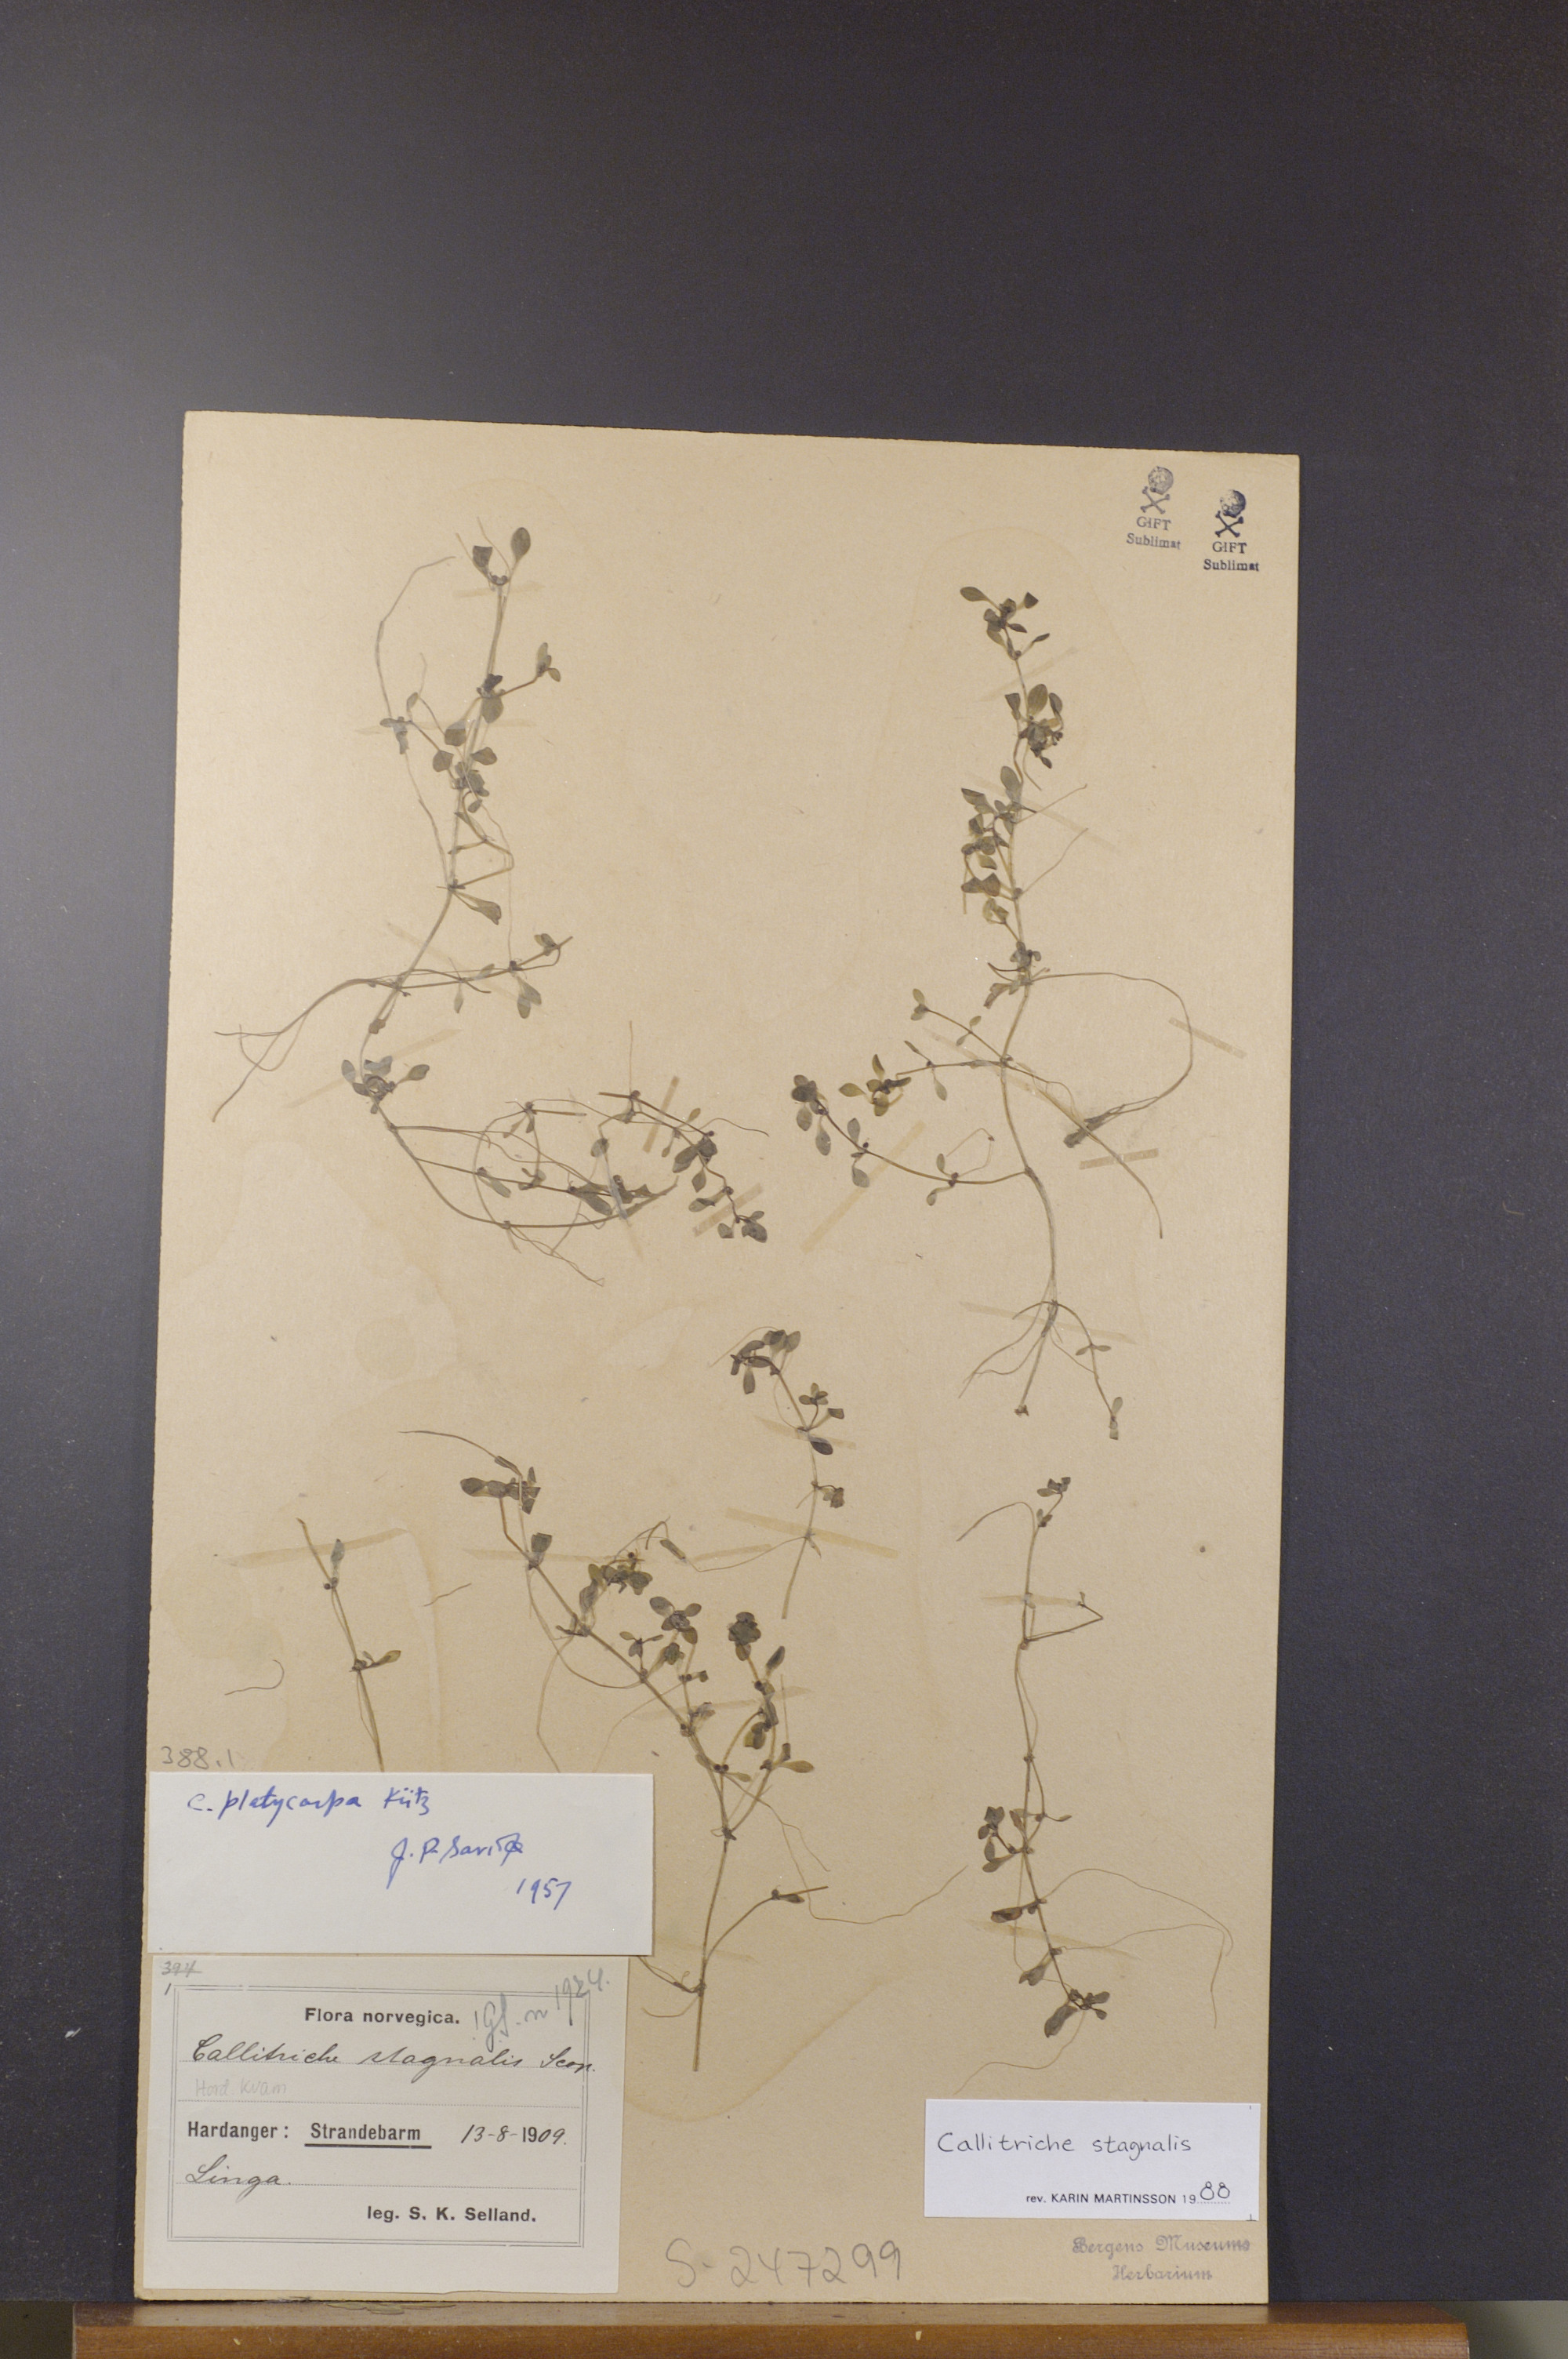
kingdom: Plantae
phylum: Tracheophyta
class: Magnoliopsida
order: Lamiales
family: Plantaginaceae
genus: Callitriche
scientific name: Callitriche stagnalis
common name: Common water-starwort
